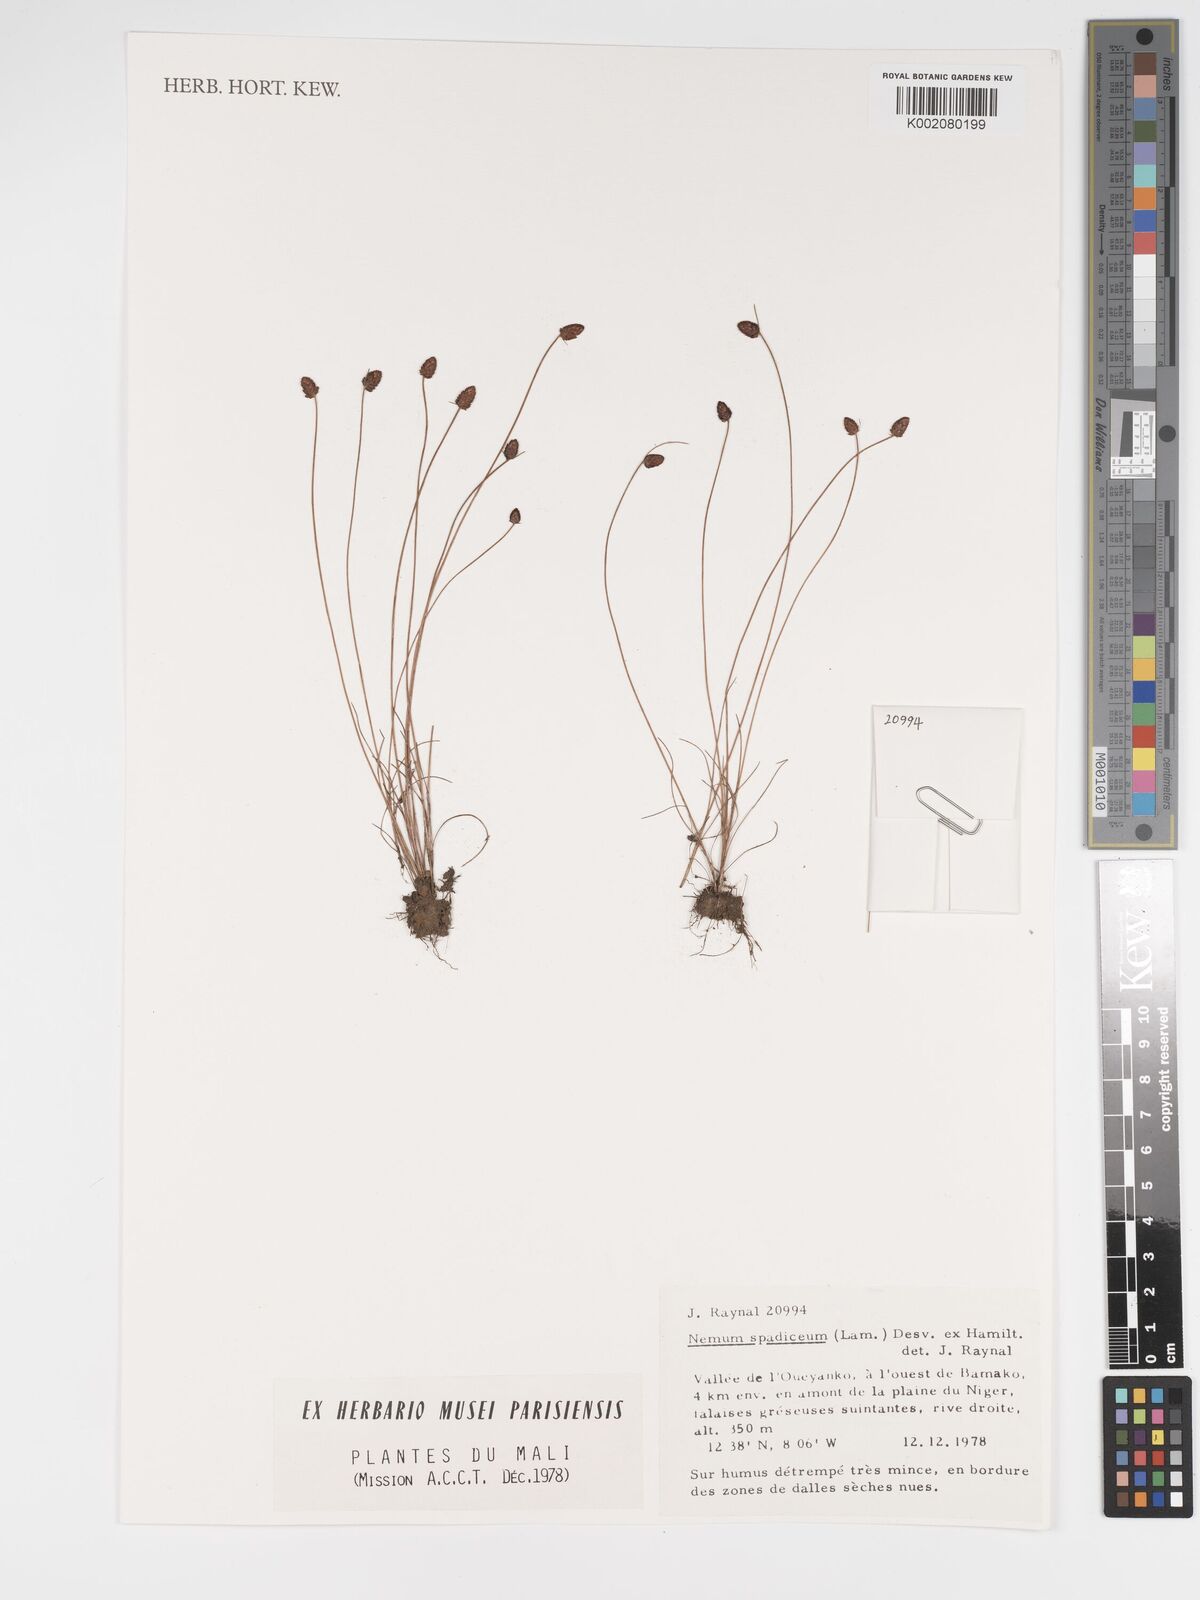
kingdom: Plantae
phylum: Tracheophyta
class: Liliopsida
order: Poales
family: Cyperaceae
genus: Bulbostylis
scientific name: Bulbostylis briziformis
